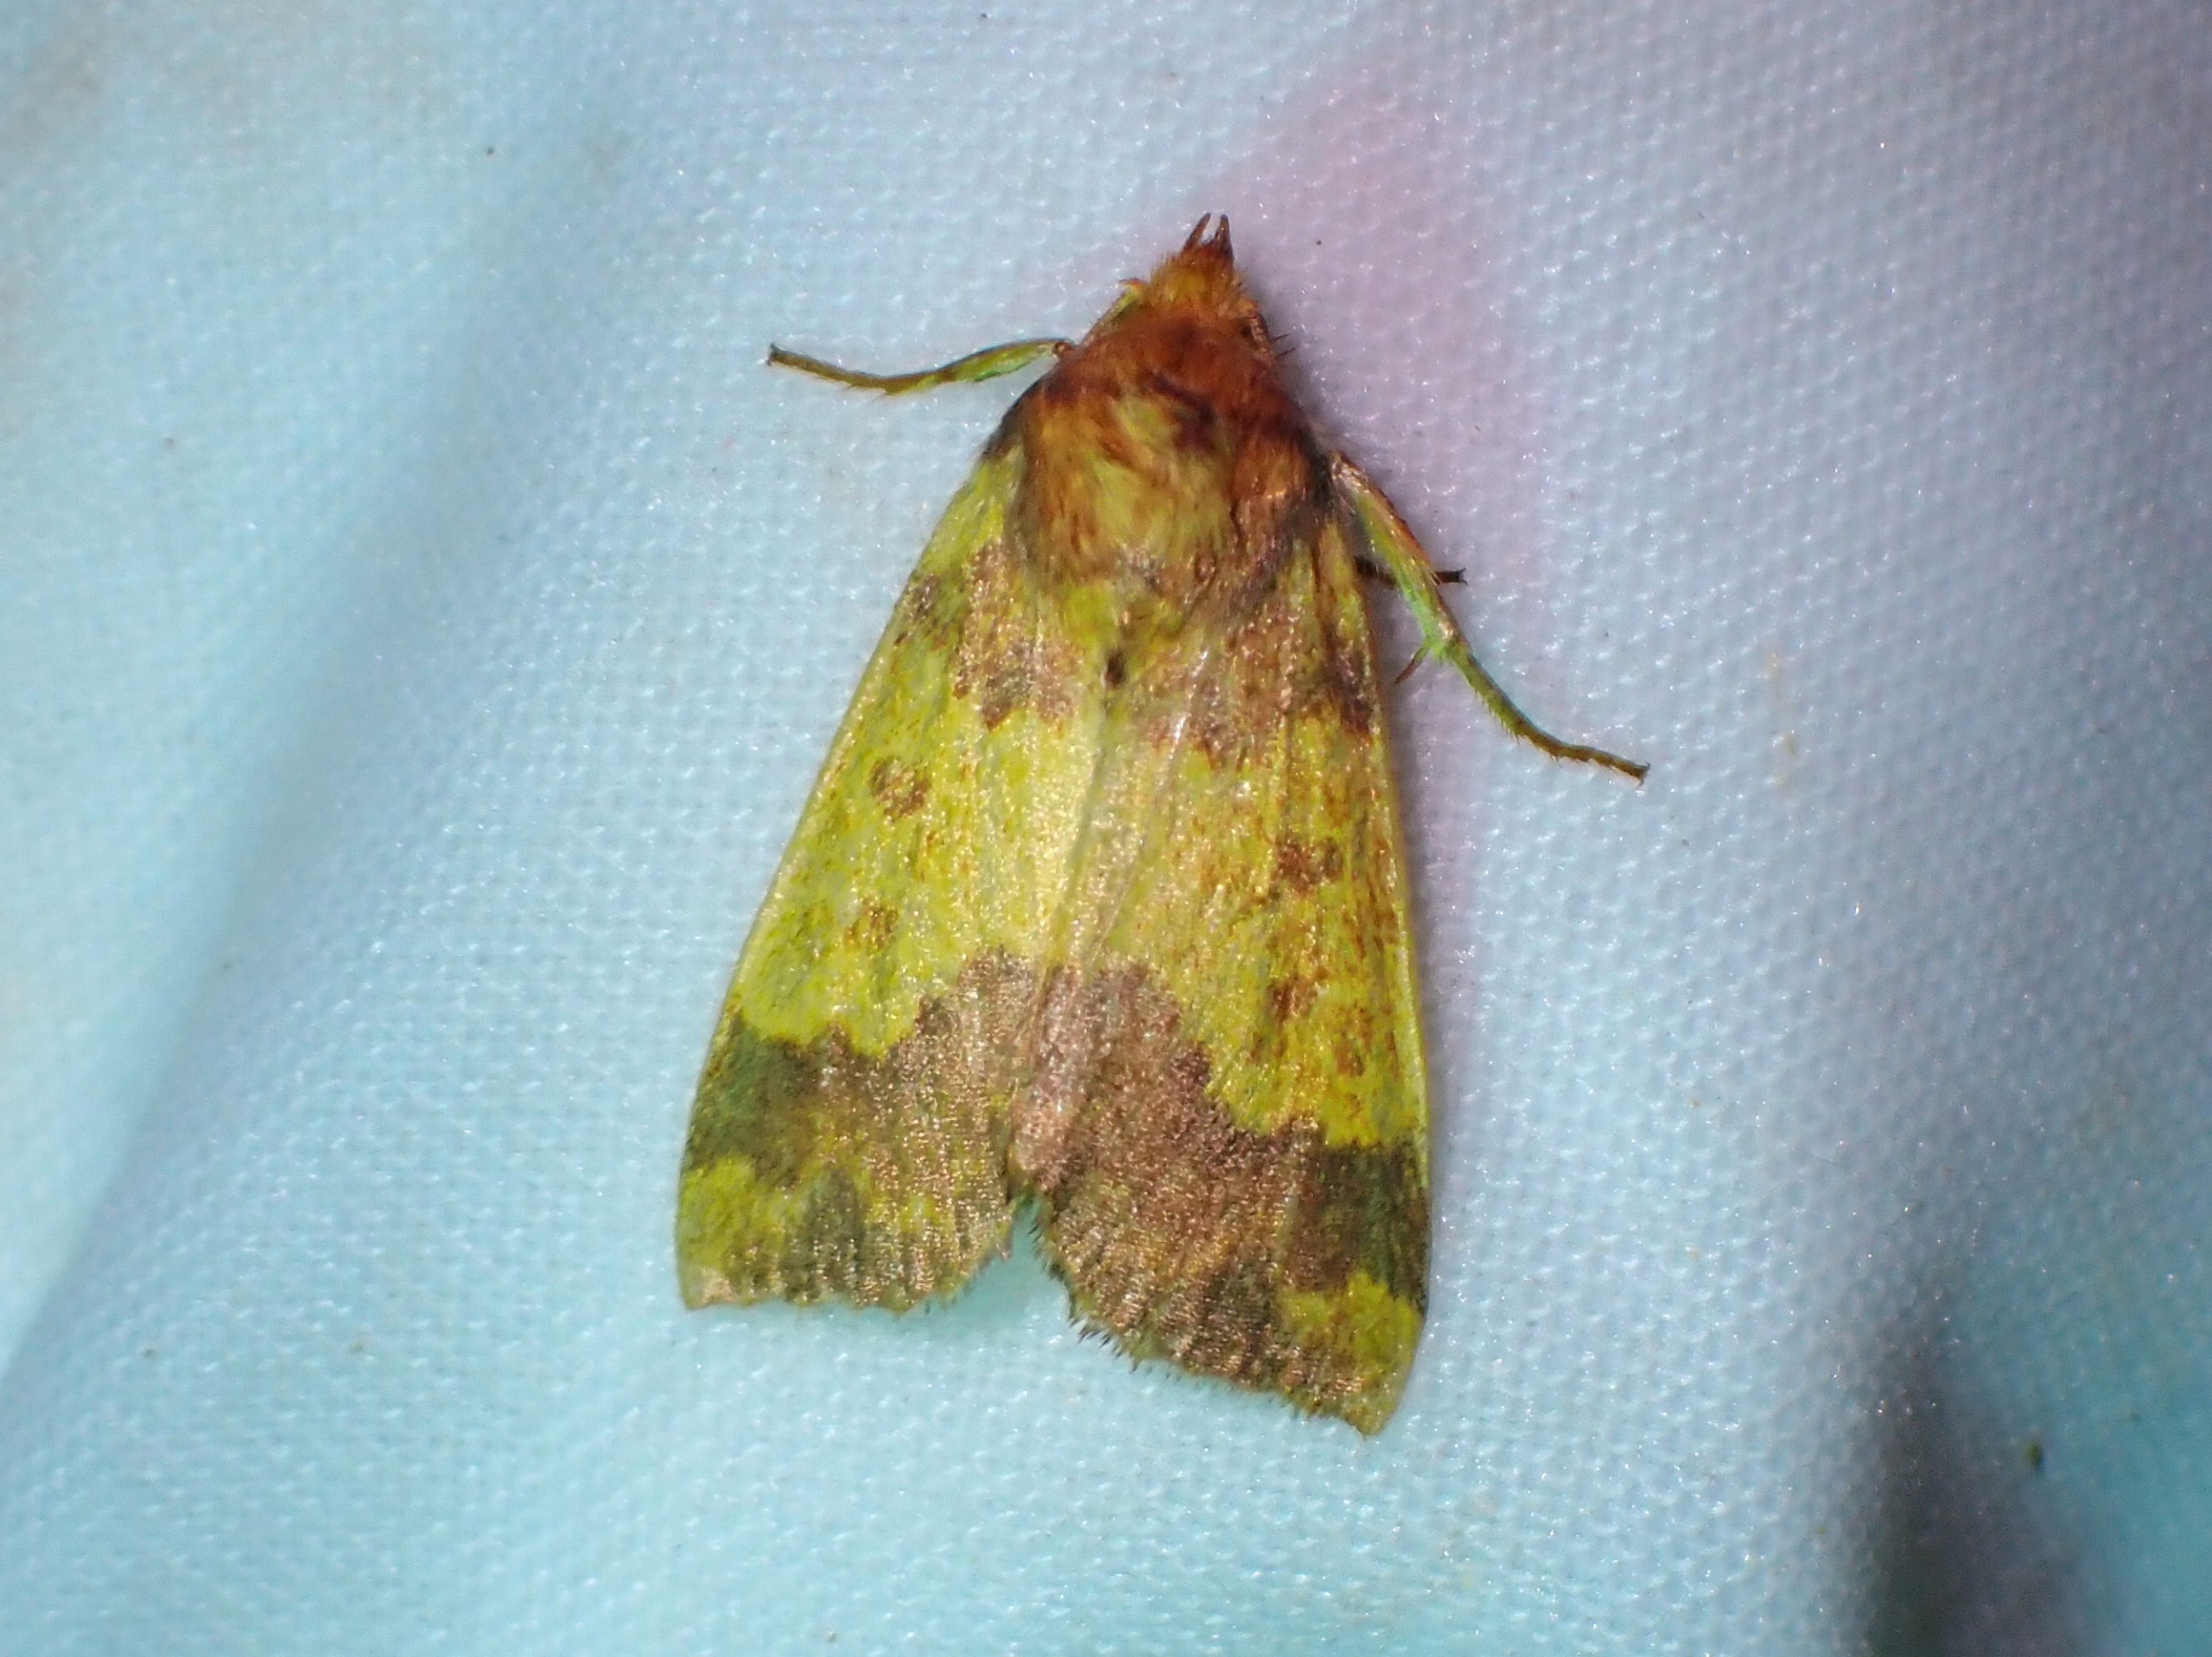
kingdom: Animalia
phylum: Arthropoda
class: Insecta
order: Lepidoptera
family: Noctuidae
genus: Tiliacea
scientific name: Tiliacea aurago
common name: Guldugle
